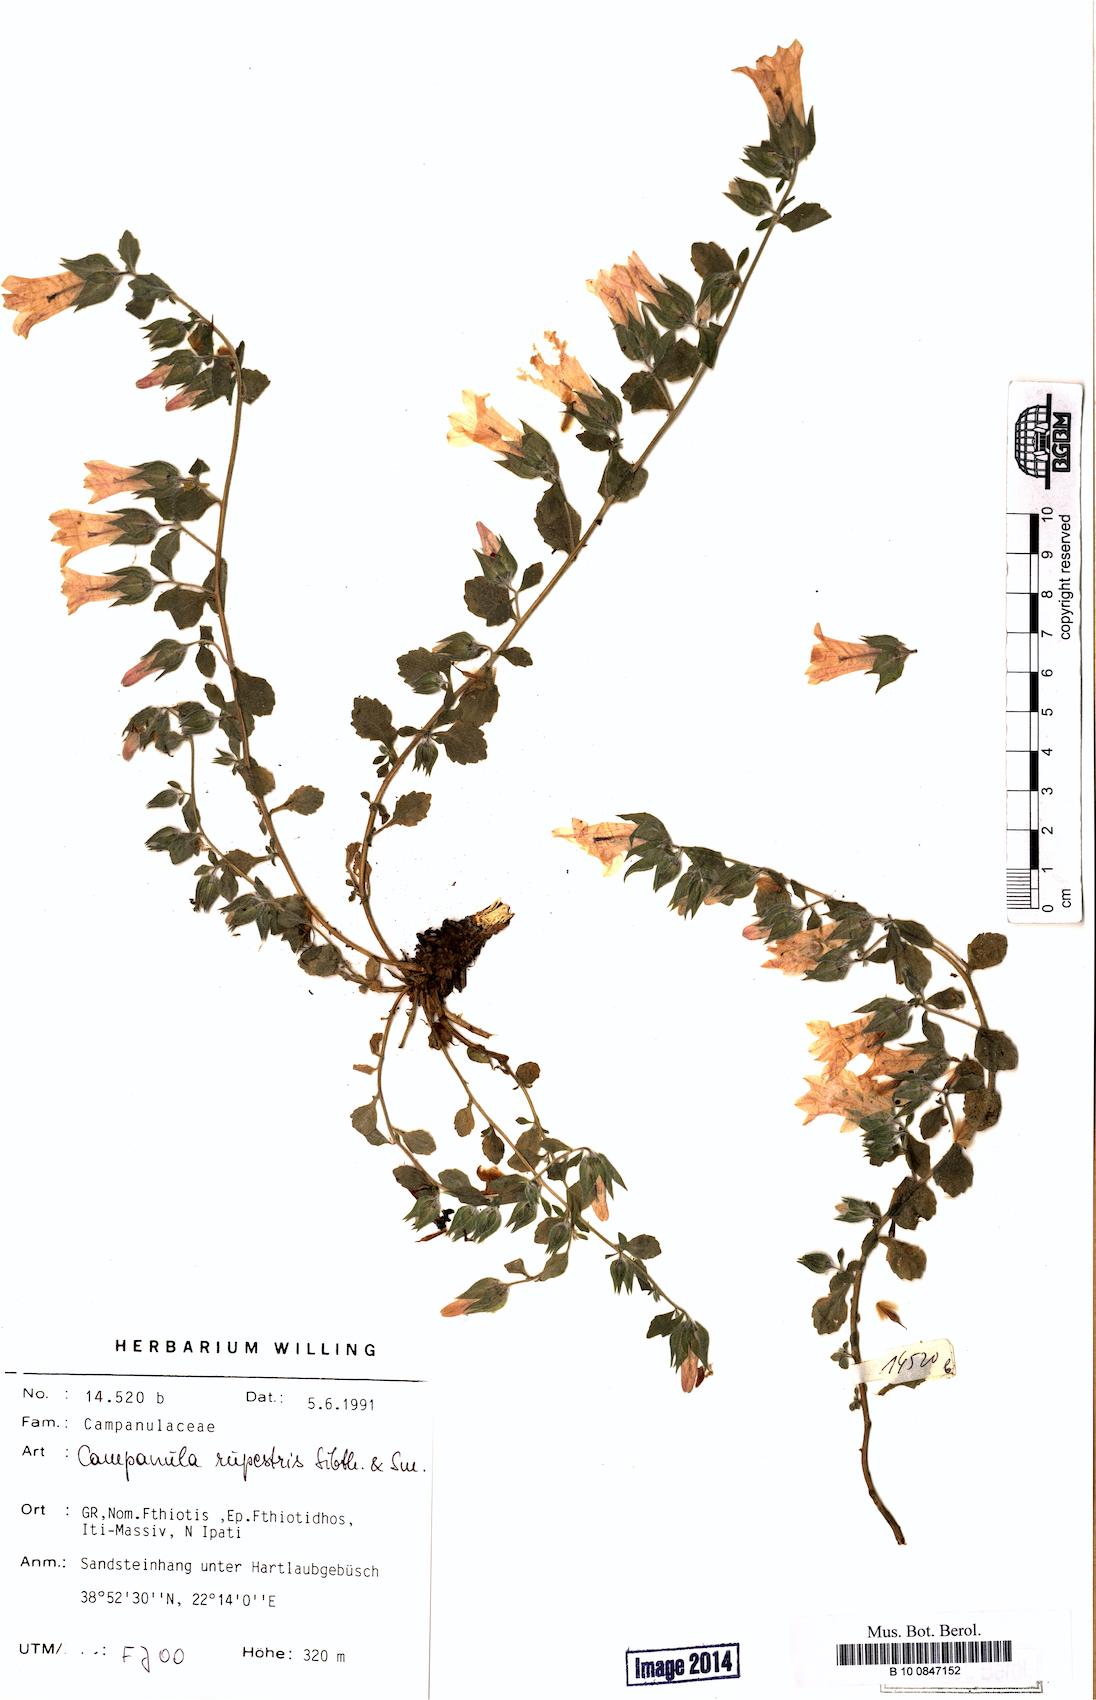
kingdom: Plantae
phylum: Tracheophyta
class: Magnoliopsida
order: Asterales
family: Campanulaceae
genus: Campanula
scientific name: Campanula rupestris
